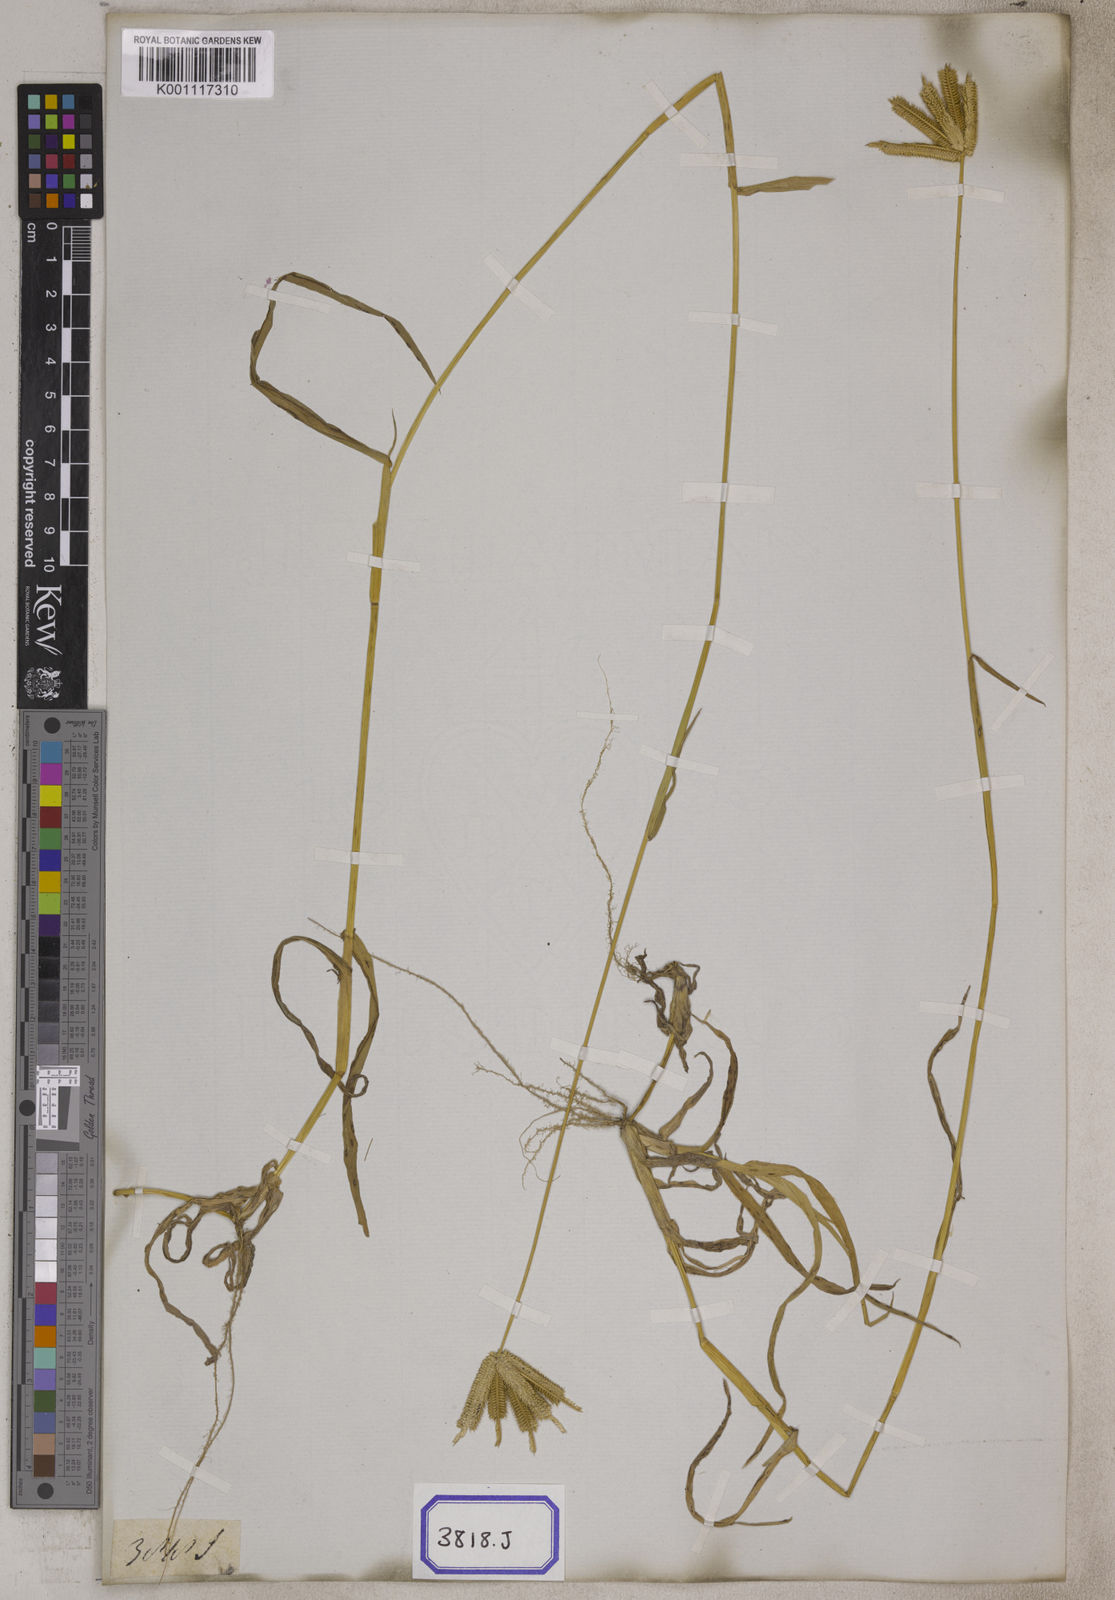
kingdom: Plantae
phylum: Tracheophyta
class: Liliopsida
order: Poales
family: Poaceae
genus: Eleusine
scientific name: Eleusine
